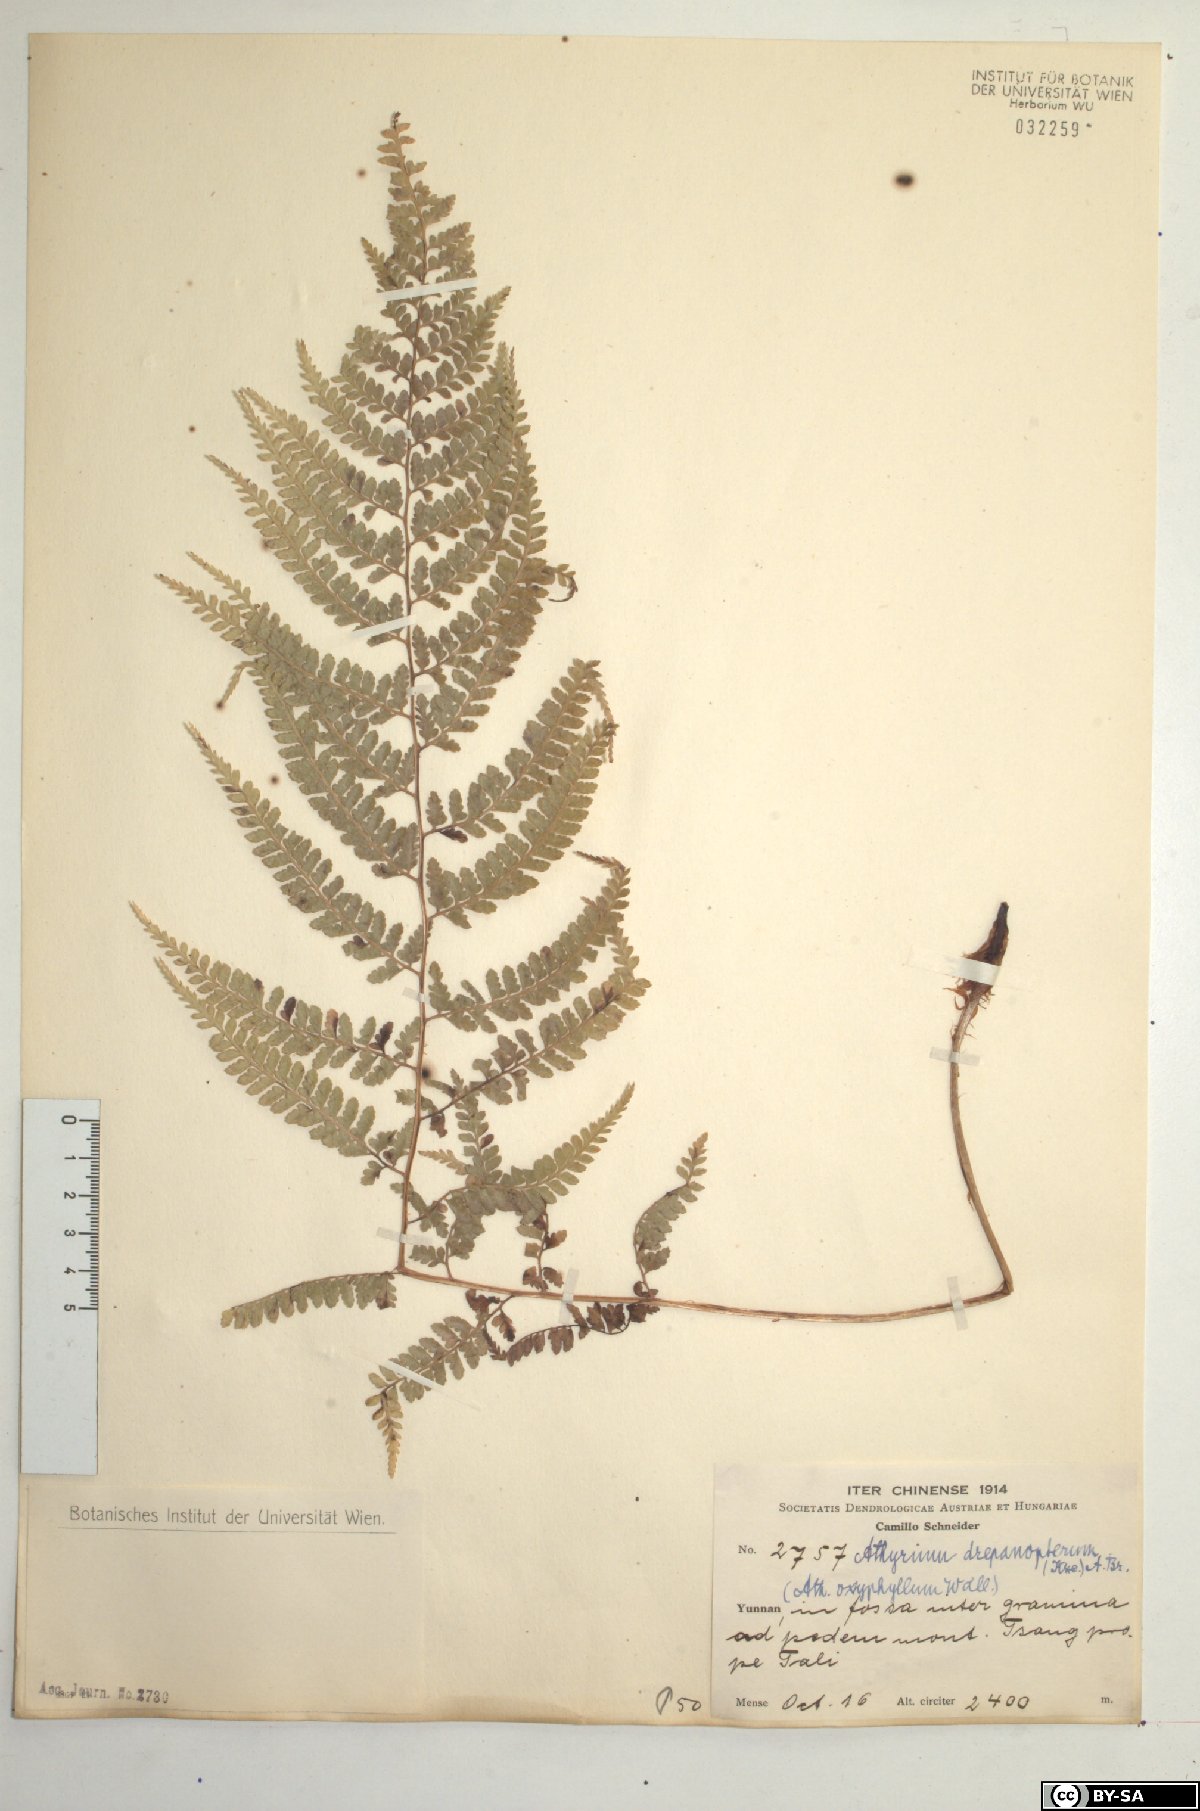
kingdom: Plantae
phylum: Tracheophyta
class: Polypodiopsida
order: Polypodiales
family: Athyriaceae
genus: Athyrium
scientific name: Athyrium drepanopteron
